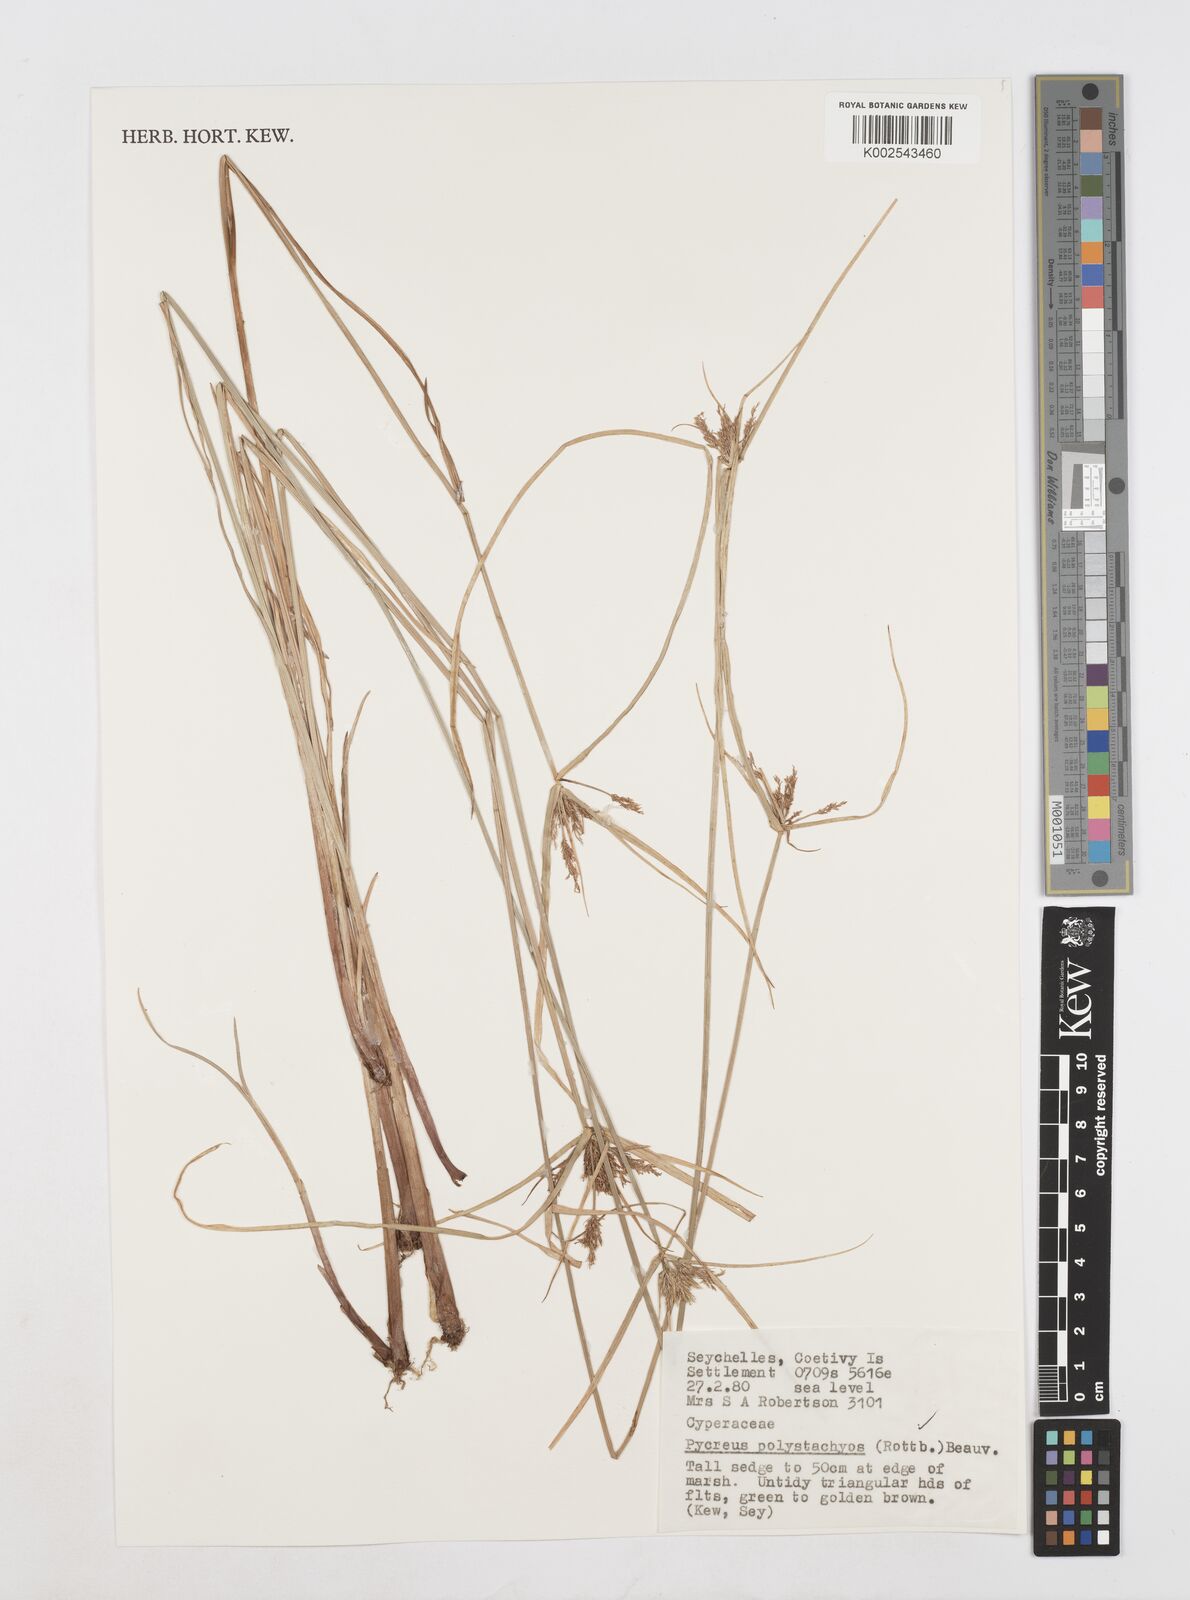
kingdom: Plantae
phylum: Tracheophyta
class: Liliopsida
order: Poales
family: Cyperaceae
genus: Cyperus
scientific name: Cyperus polystachyos
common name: Bunchy flat sedge
